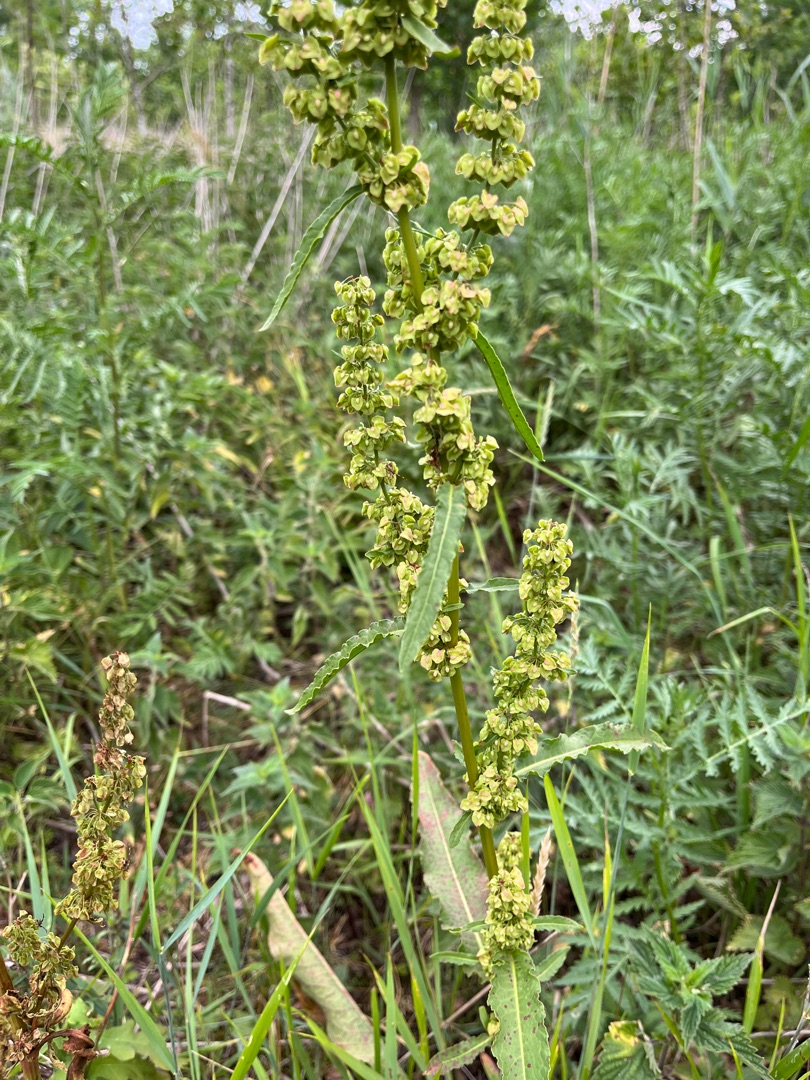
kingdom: Plantae
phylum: Tracheophyta
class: Magnoliopsida
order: Caryophyllales
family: Polygonaceae
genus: Rumex
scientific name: Rumex crispus
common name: Kruset skræppe
